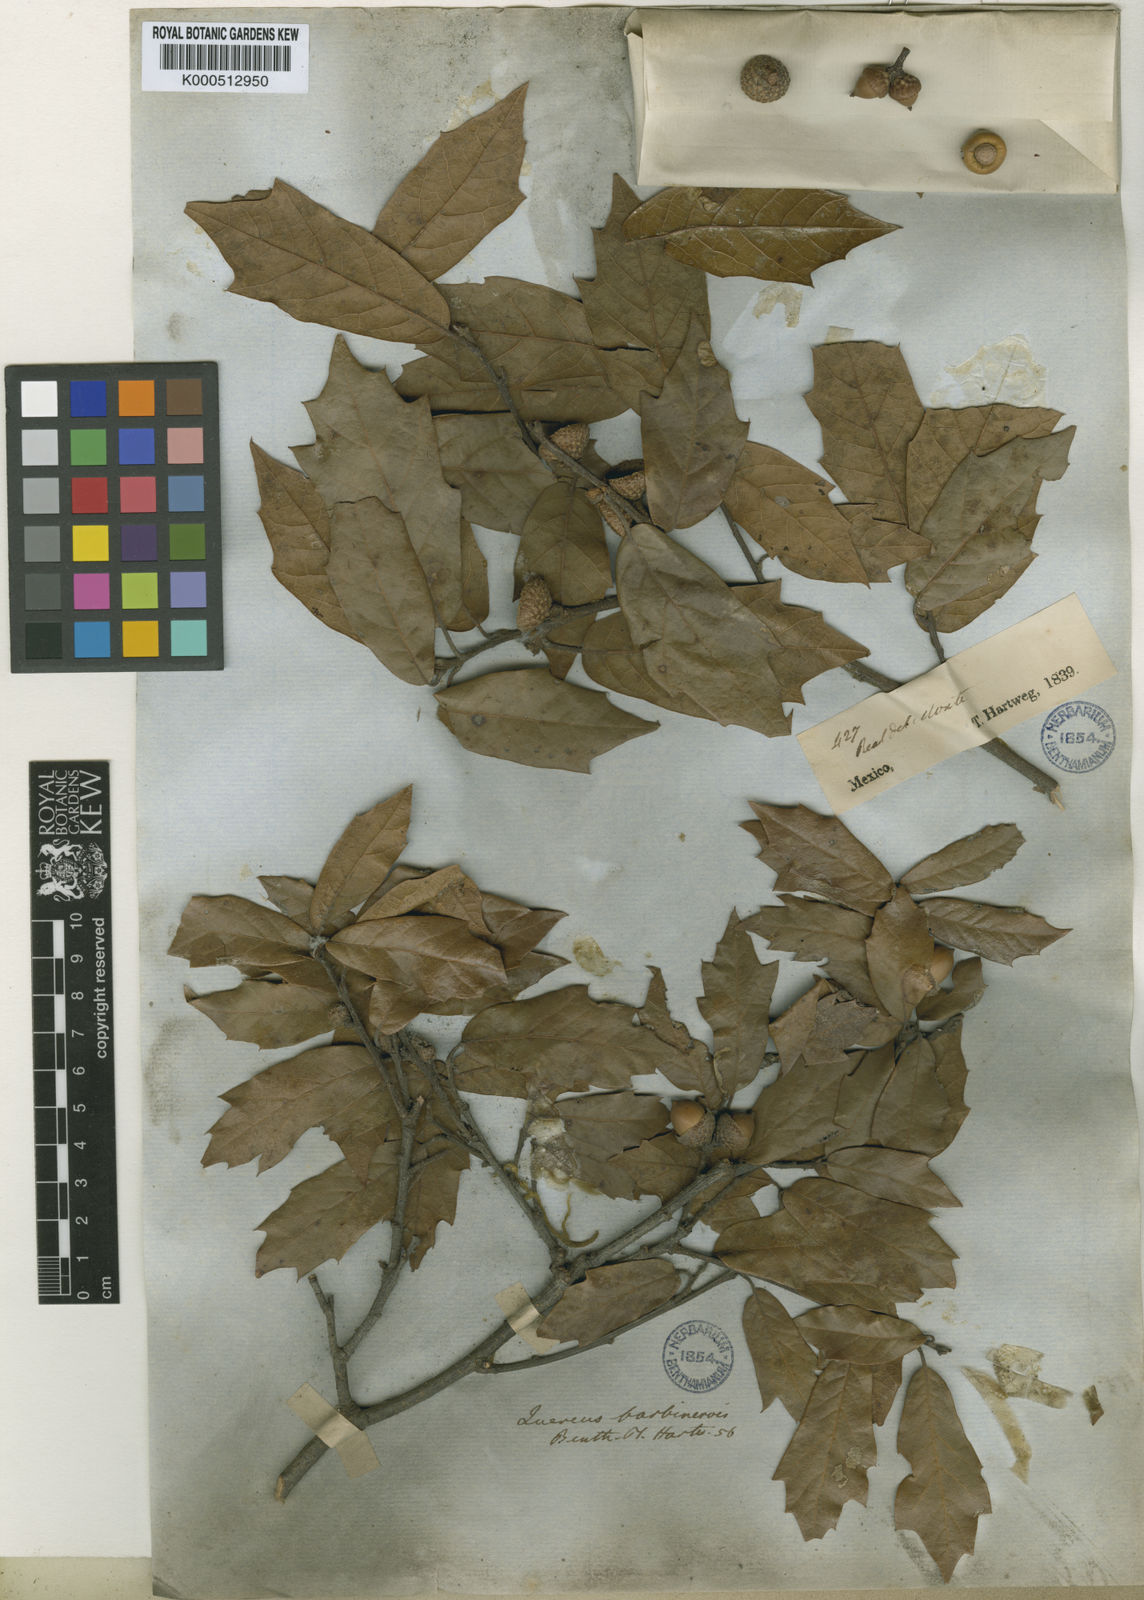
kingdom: Plantae
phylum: Tracheophyta
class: Magnoliopsida
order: Fagales
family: Fagaceae
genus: Quercus
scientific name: Quercus laurina
